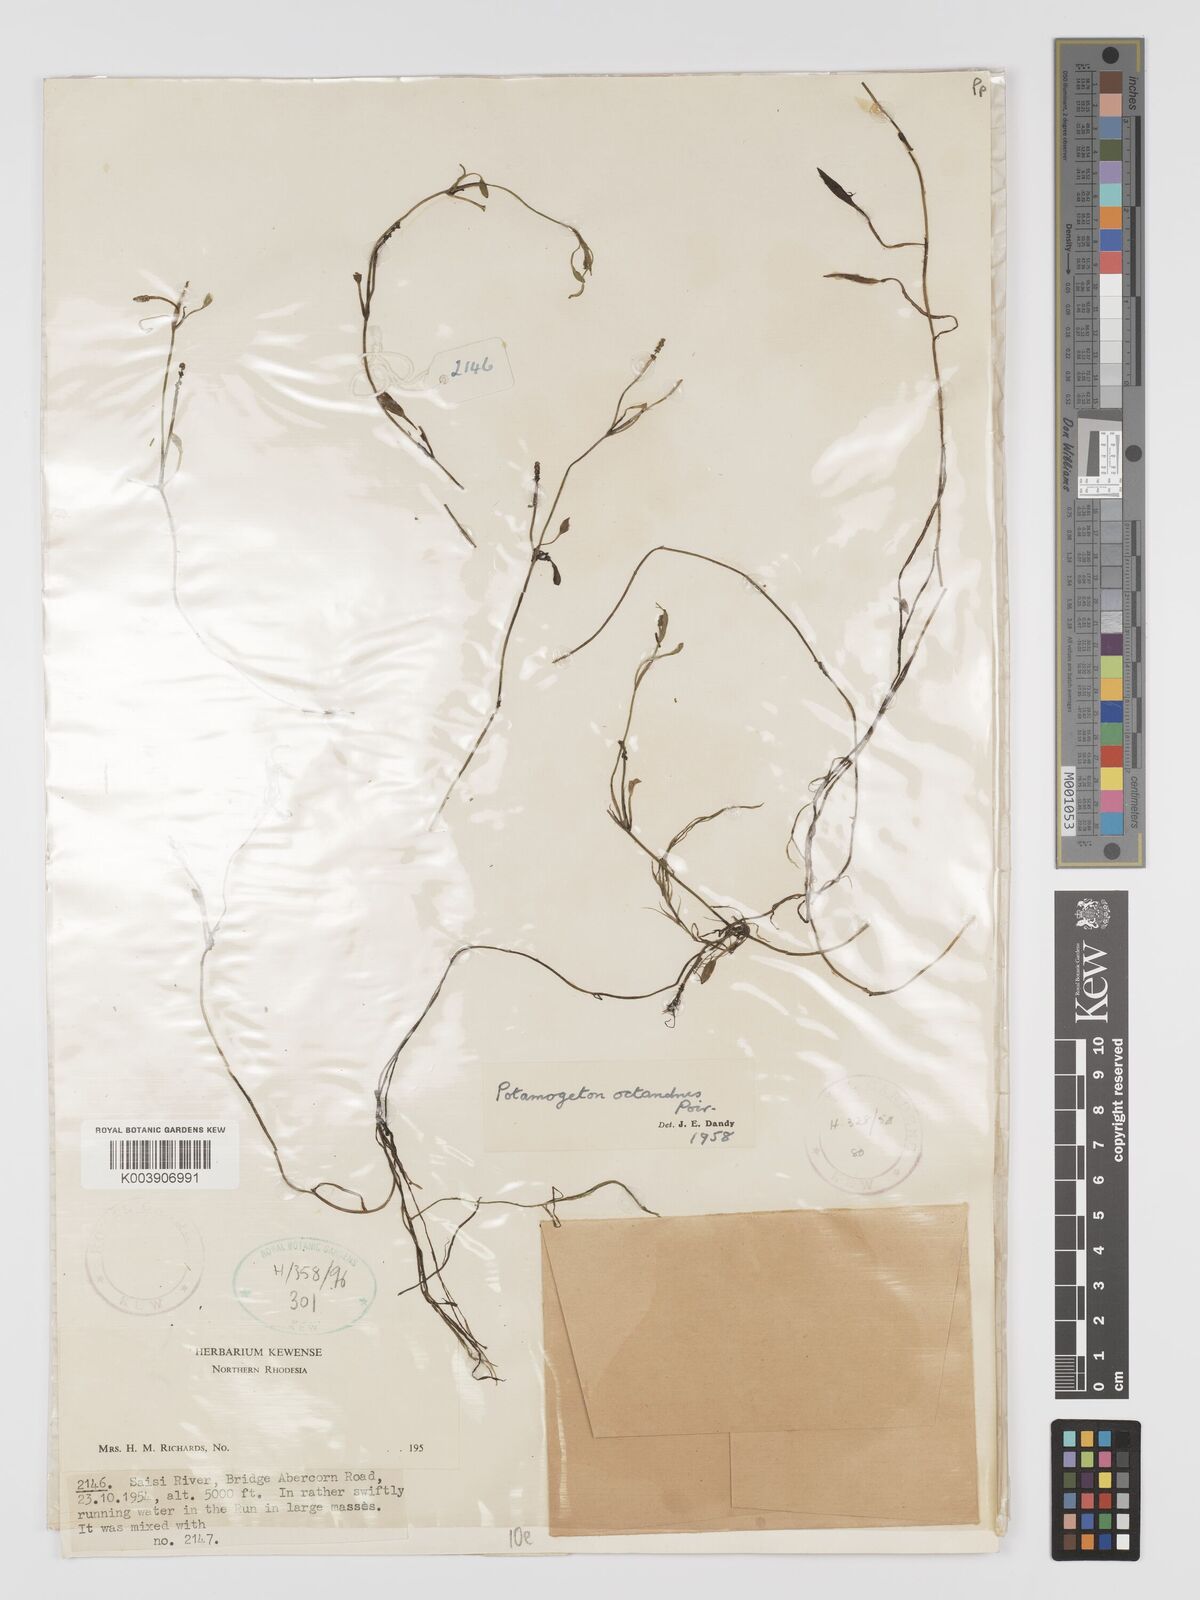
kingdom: Plantae
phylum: Tracheophyta
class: Liliopsida
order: Alismatales
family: Potamogetonaceae
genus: Potamogeton
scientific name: Potamogeton octandrus
